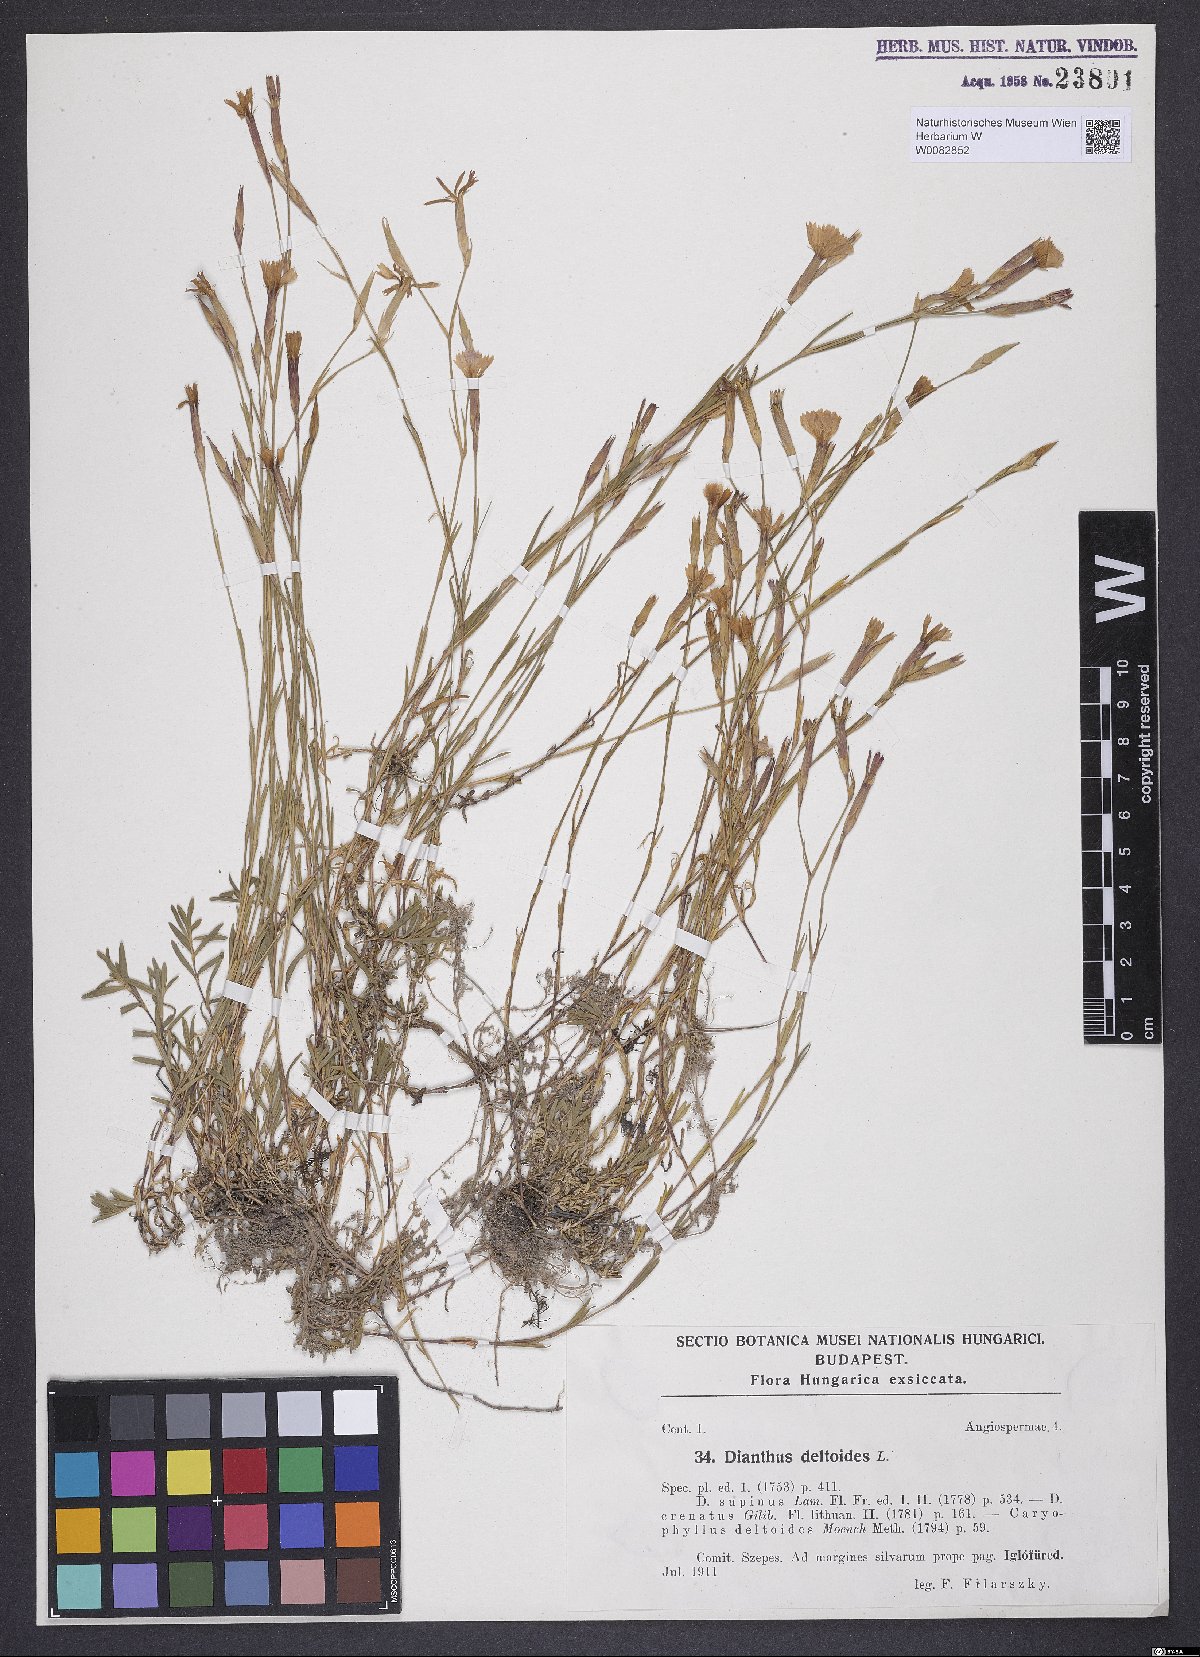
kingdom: Plantae
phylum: Tracheophyta
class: Magnoliopsida
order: Caryophyllales
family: Caryophyllaceae
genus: Dianthus
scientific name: Dianthus deltoides
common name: Maiden pink
